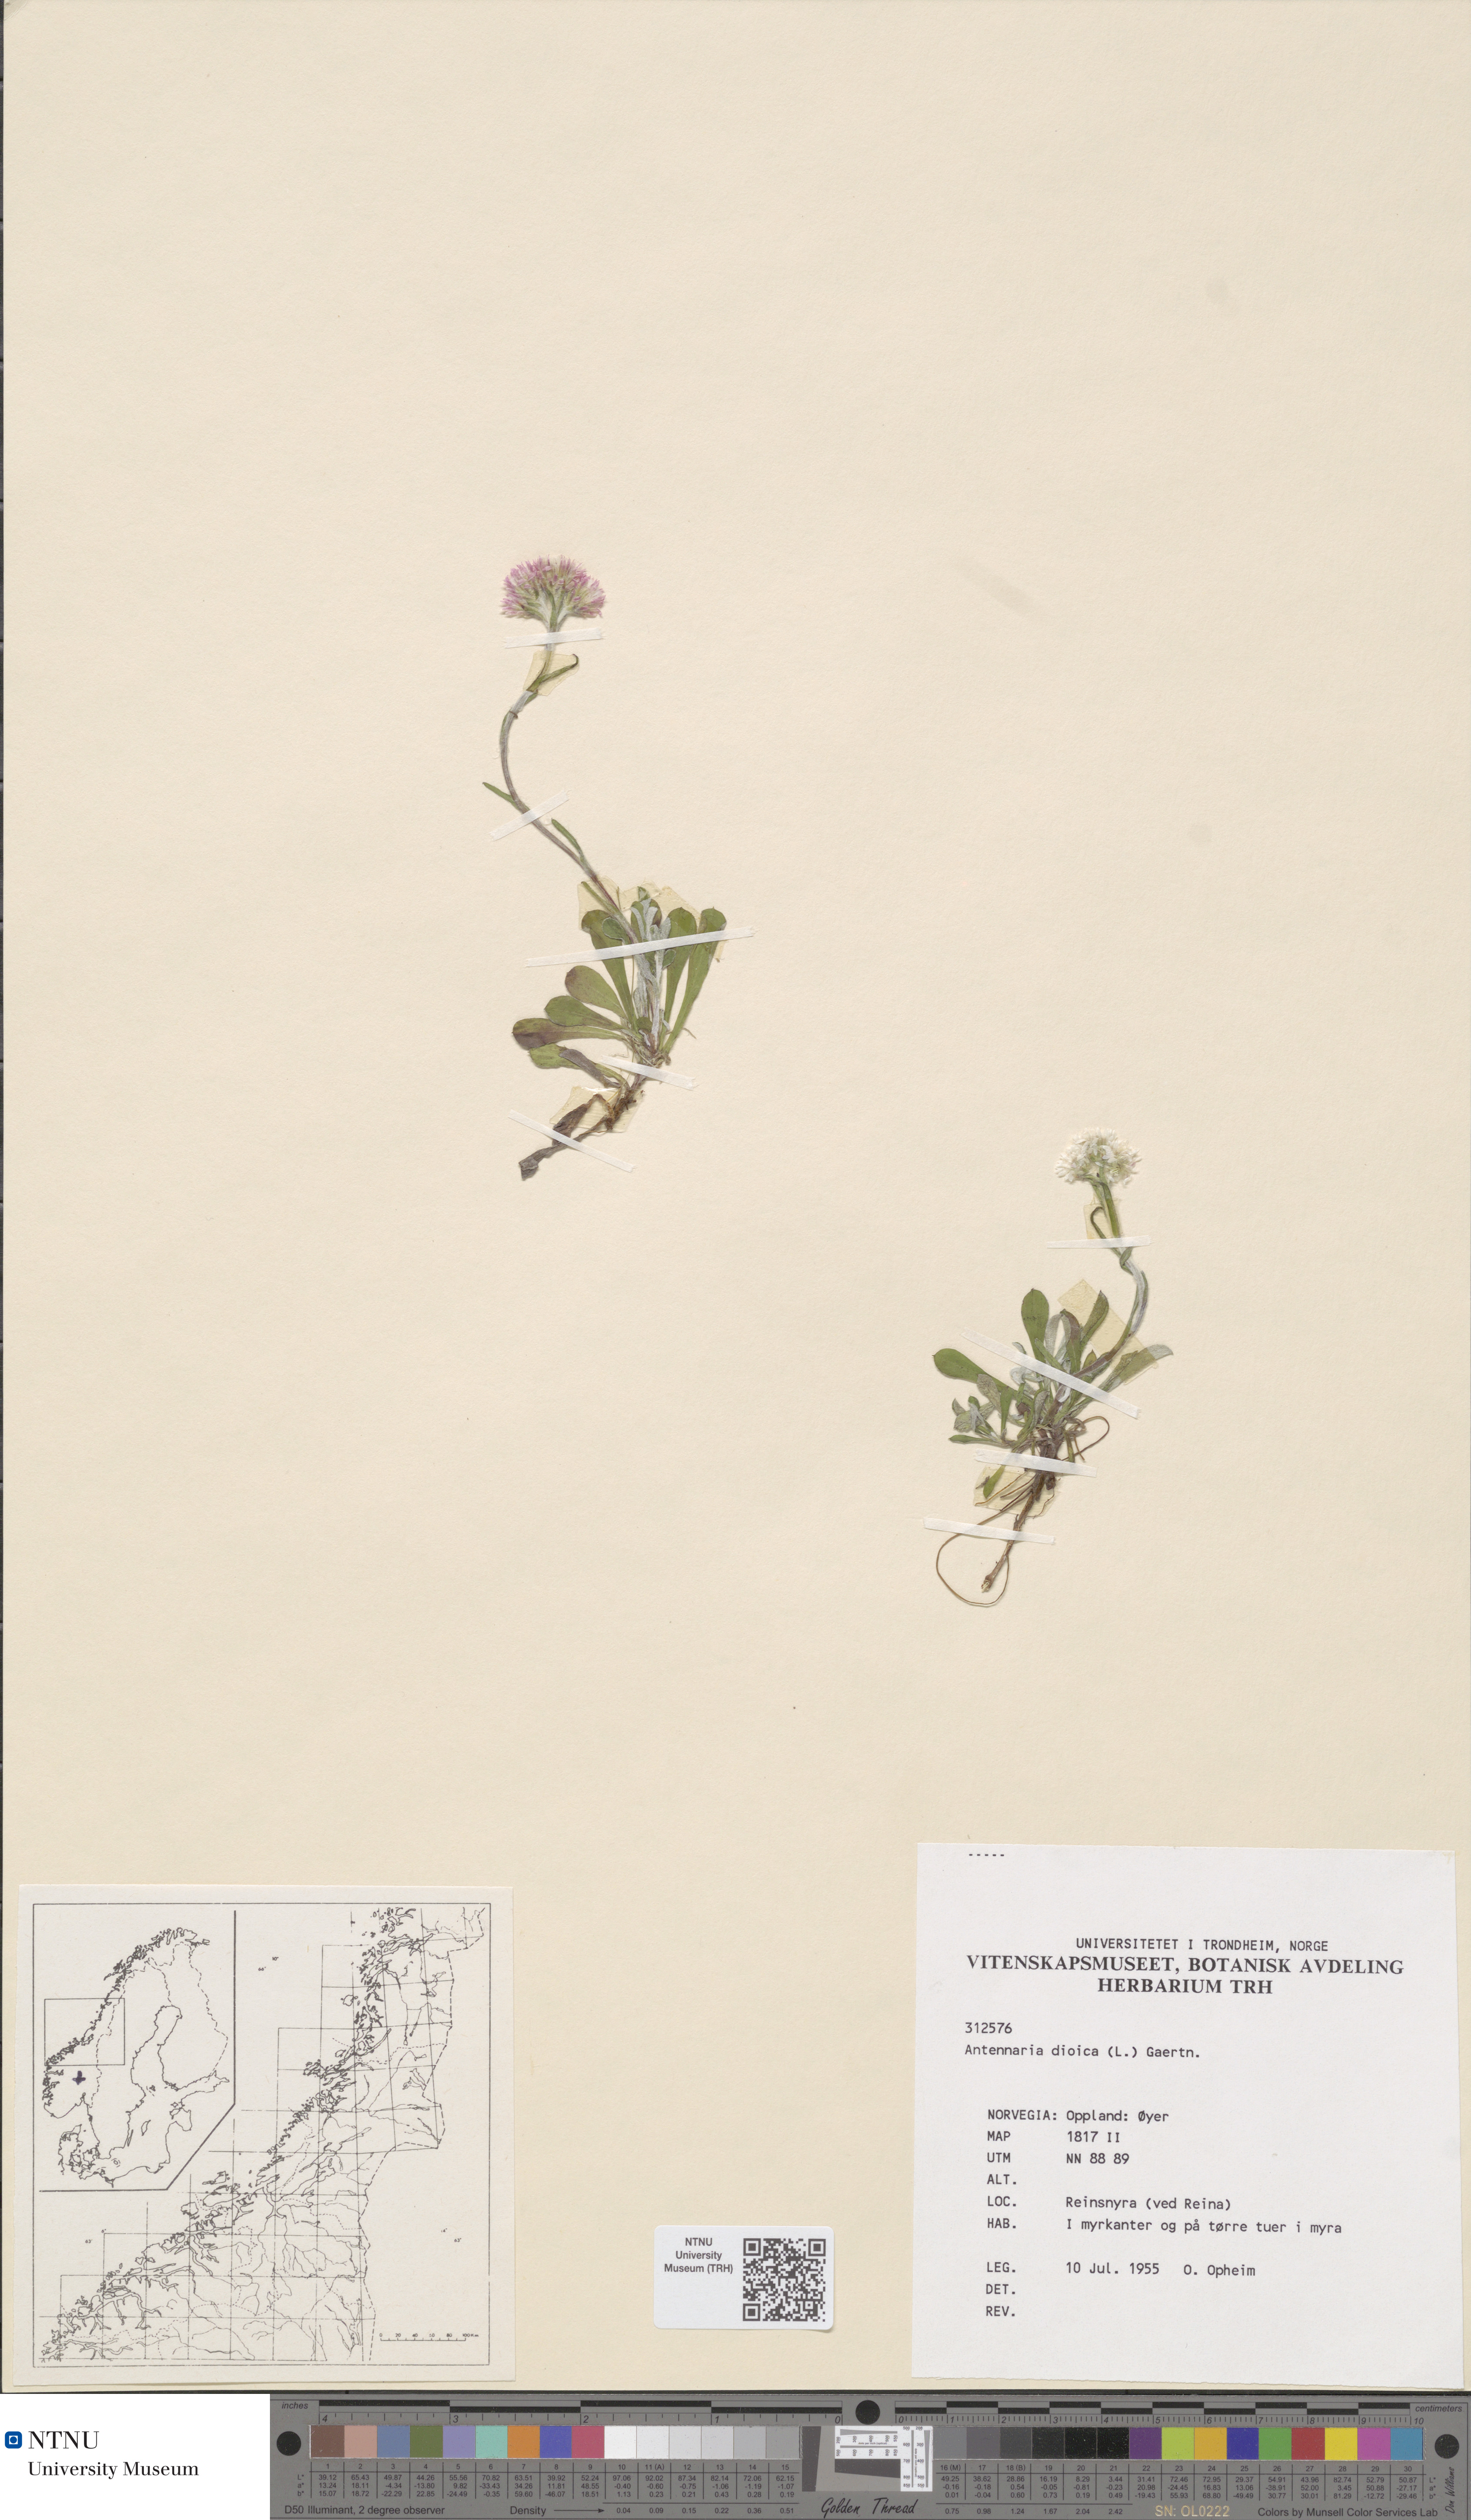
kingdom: Plantae
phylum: Tracheophyta
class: Magnoliopsida
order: Asterales
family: Asteraceae
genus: Antennaria
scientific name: Antennaria dioica
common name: Mountain everlasting
